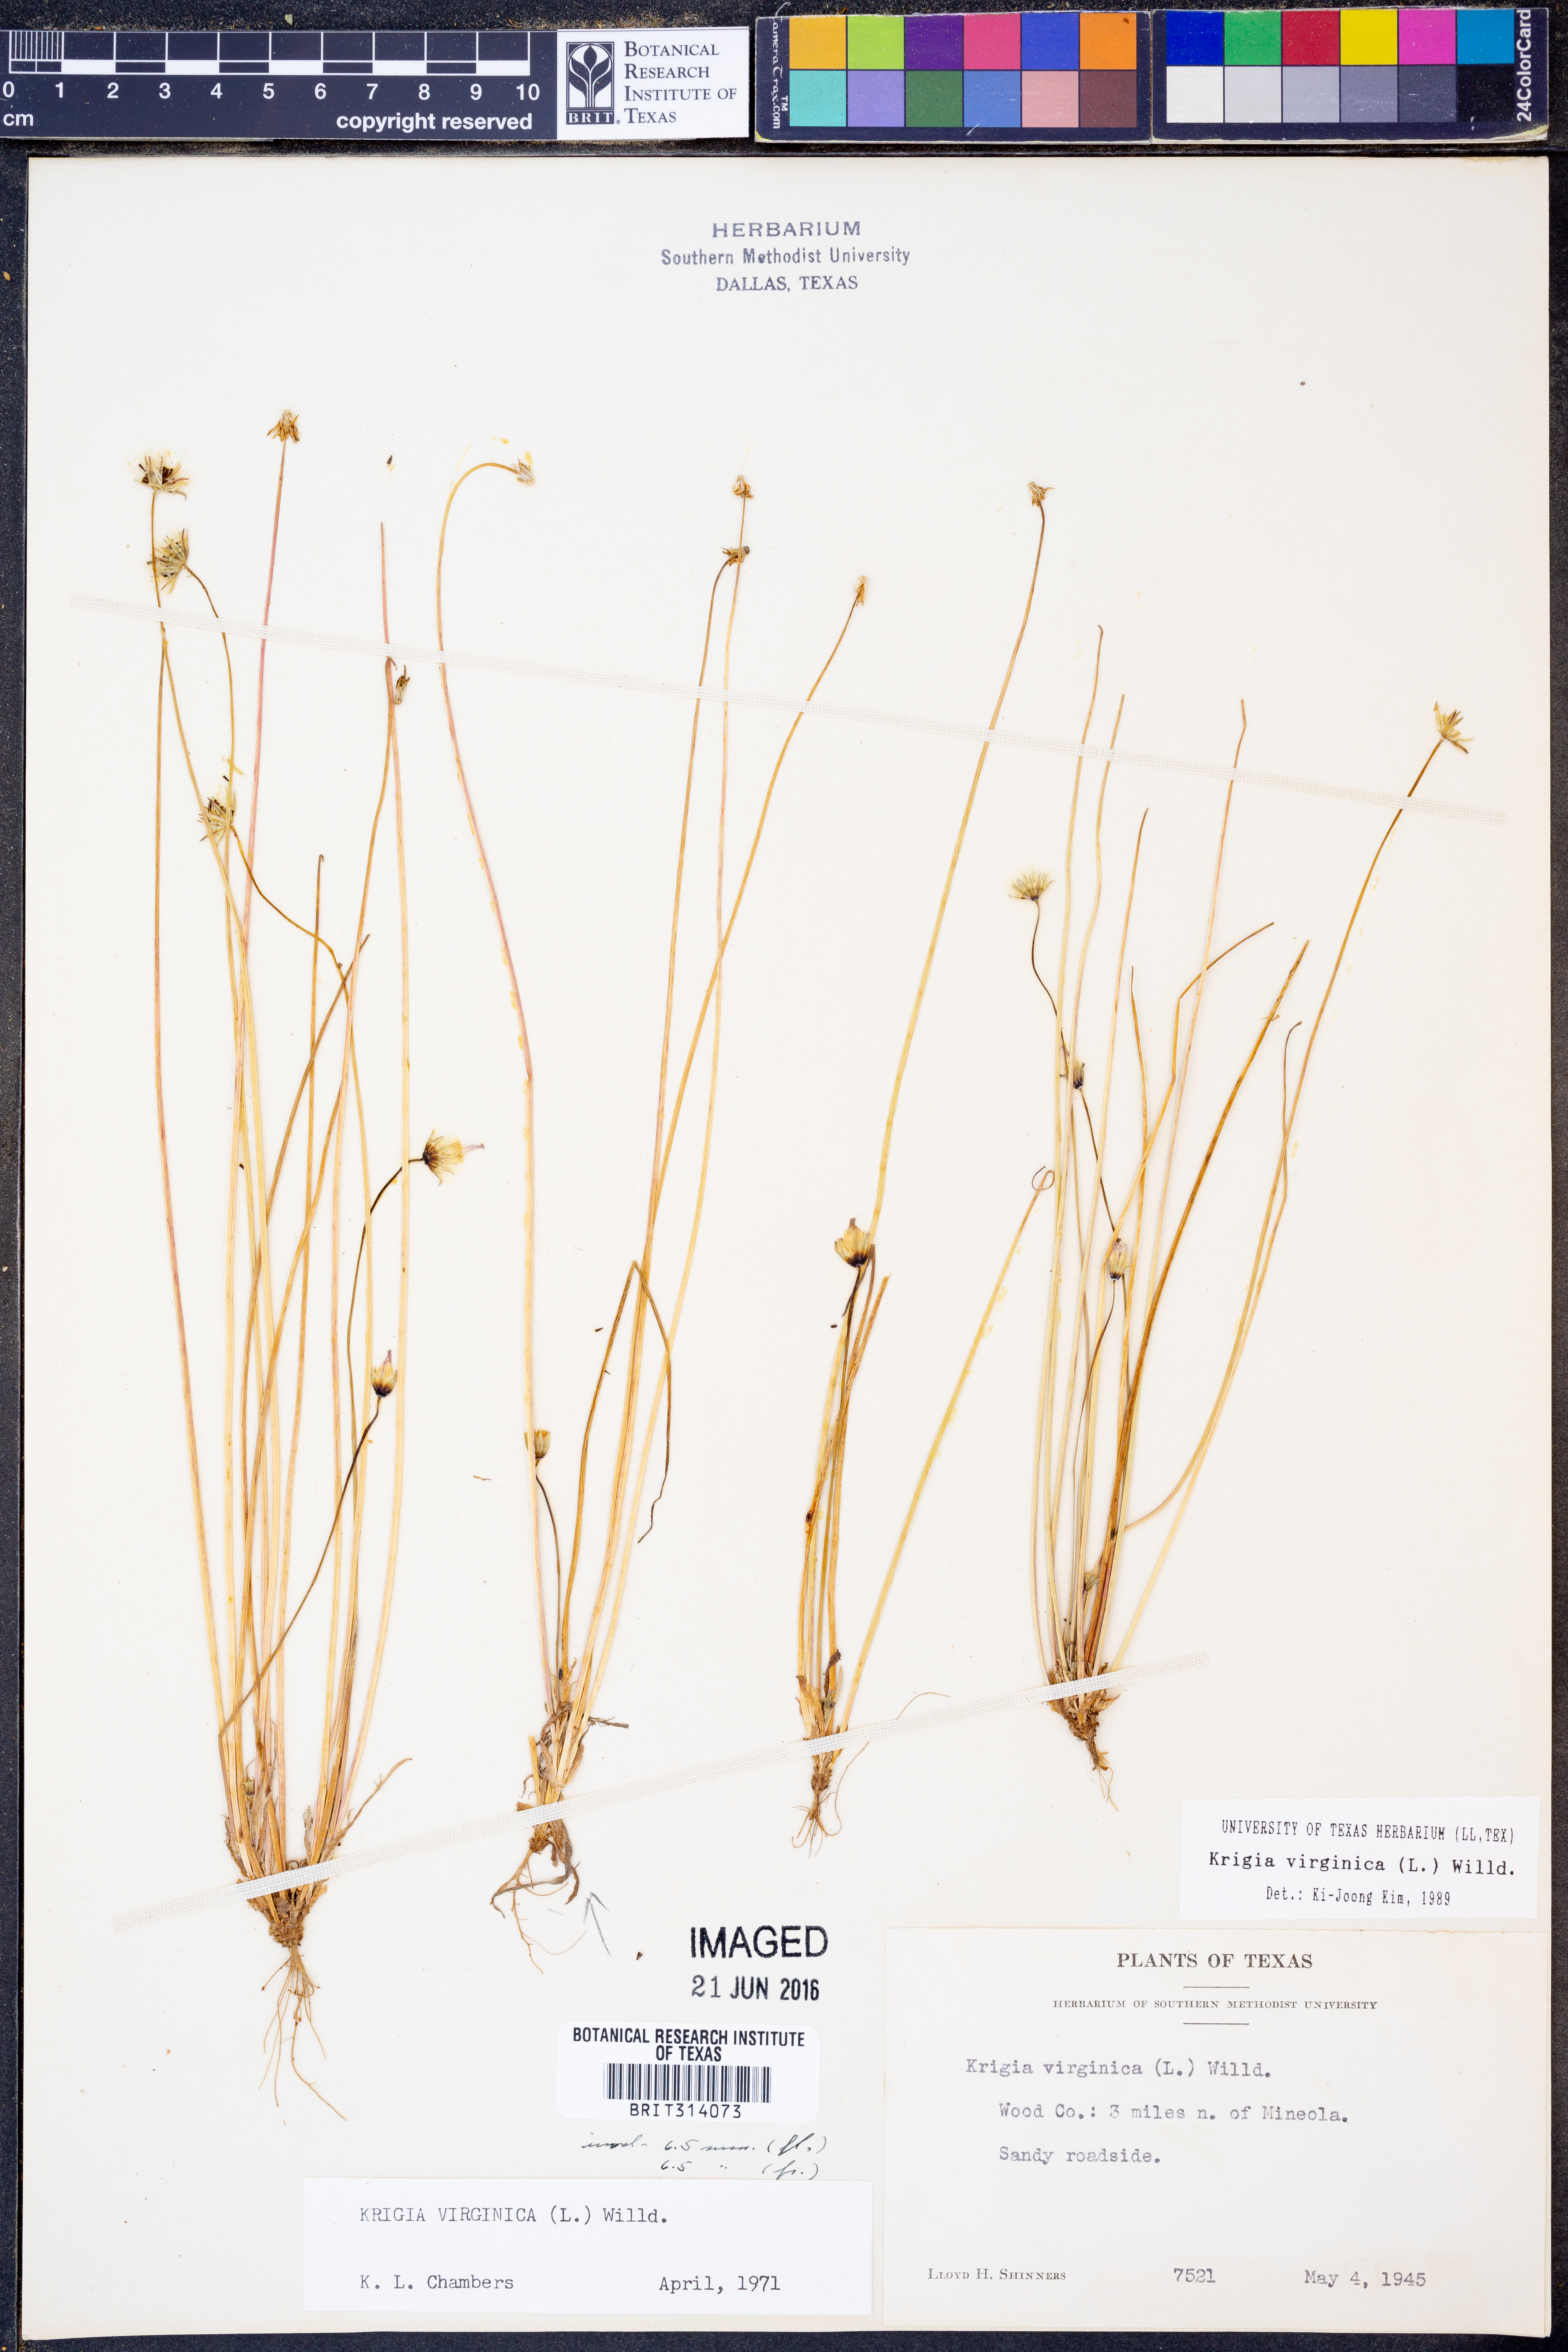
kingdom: Plantae
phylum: Tracheophyta
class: Magnoliopsida
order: Asterales
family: Asteraceae
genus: Krigia
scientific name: Krigia virginica
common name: Virginia dwarf-dandelion
